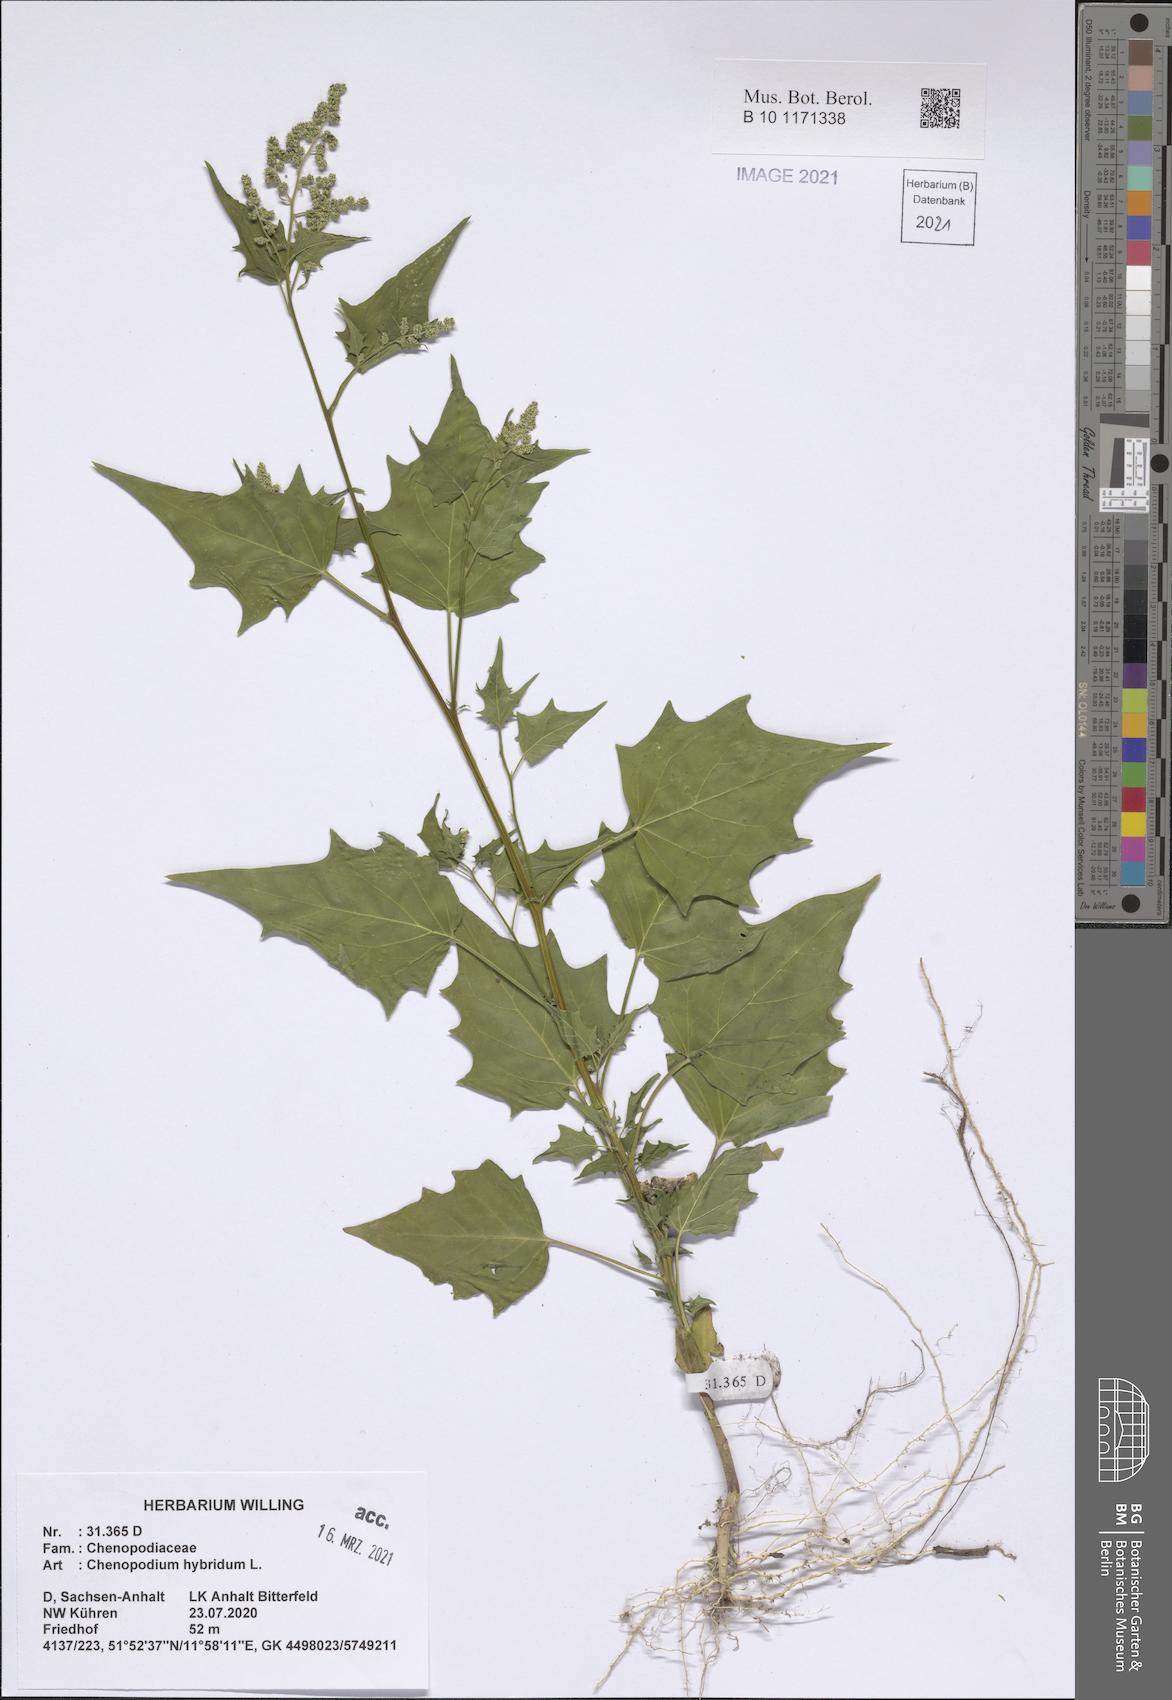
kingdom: Plantae
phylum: Tracheophyta
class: Magnoliopsida
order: Caryophyllales
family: Amaranthaceae
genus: Chenopodiastrum
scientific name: Chenopodiastrum hybridum
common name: Mapleleaf goosefoot
